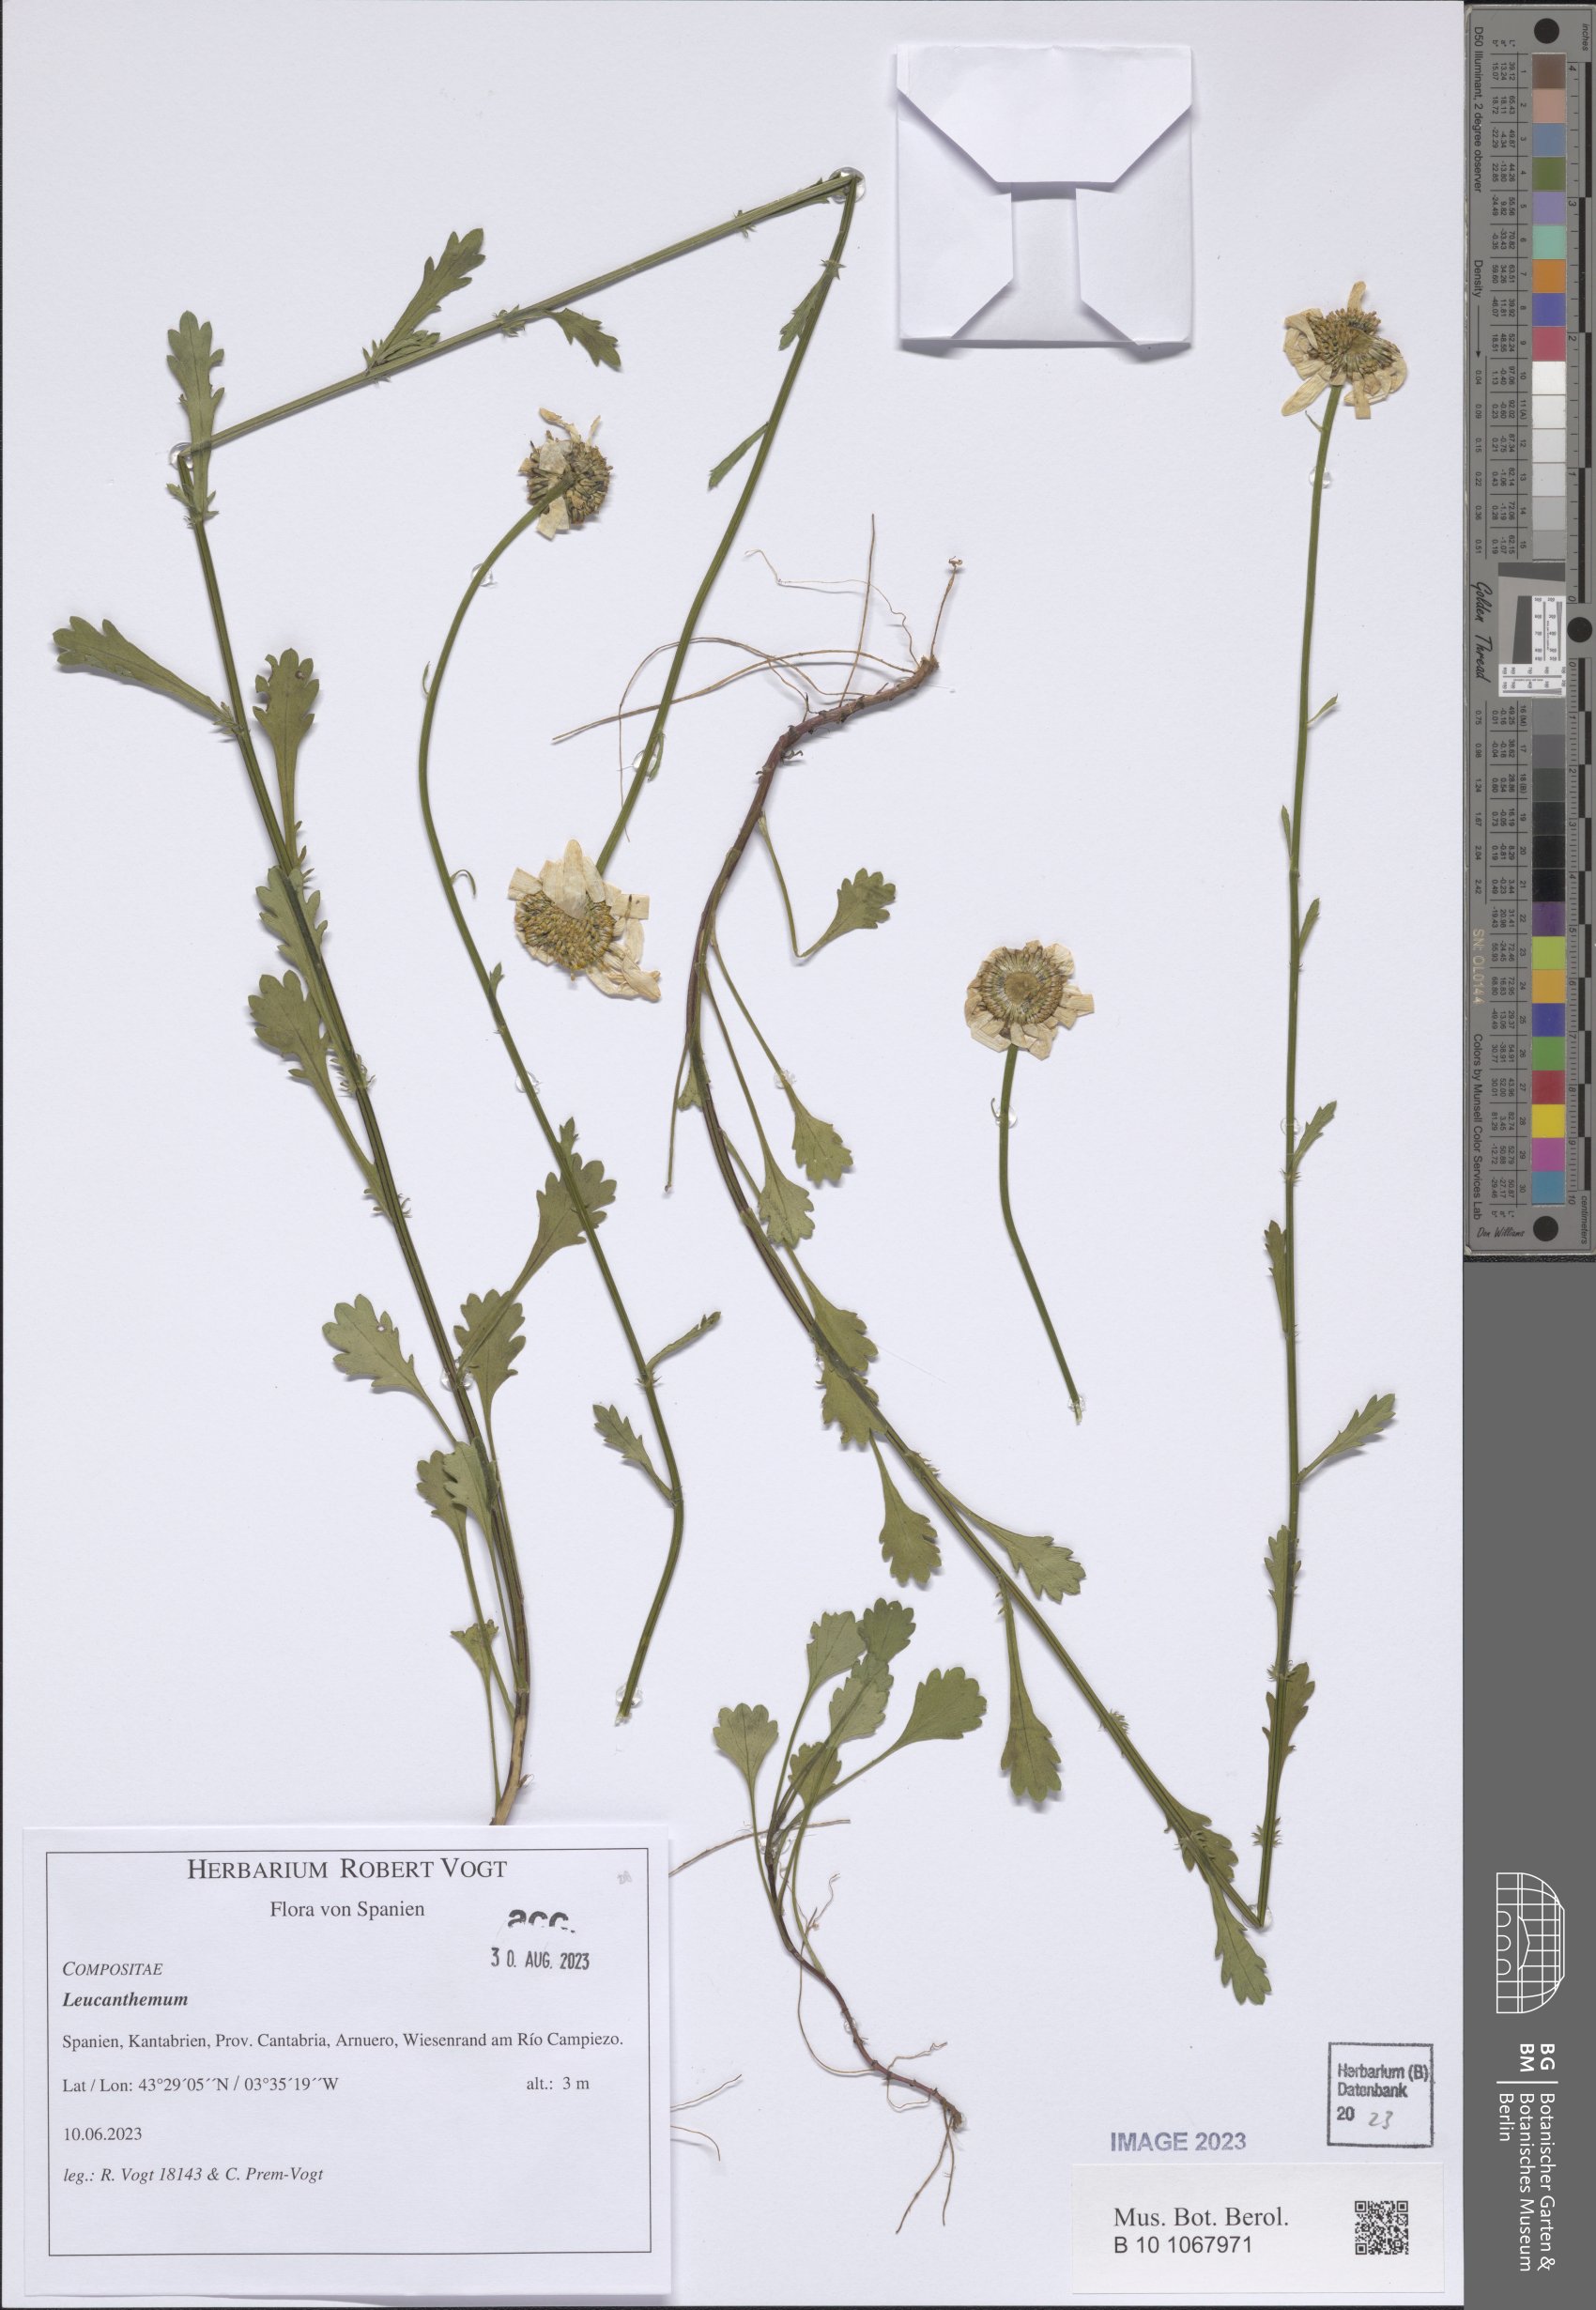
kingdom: Plantae
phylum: Tracheophyta
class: Magnoliopsida
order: Asterales
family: Asteraceae
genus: Leucanthemum
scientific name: Leucanthemum
